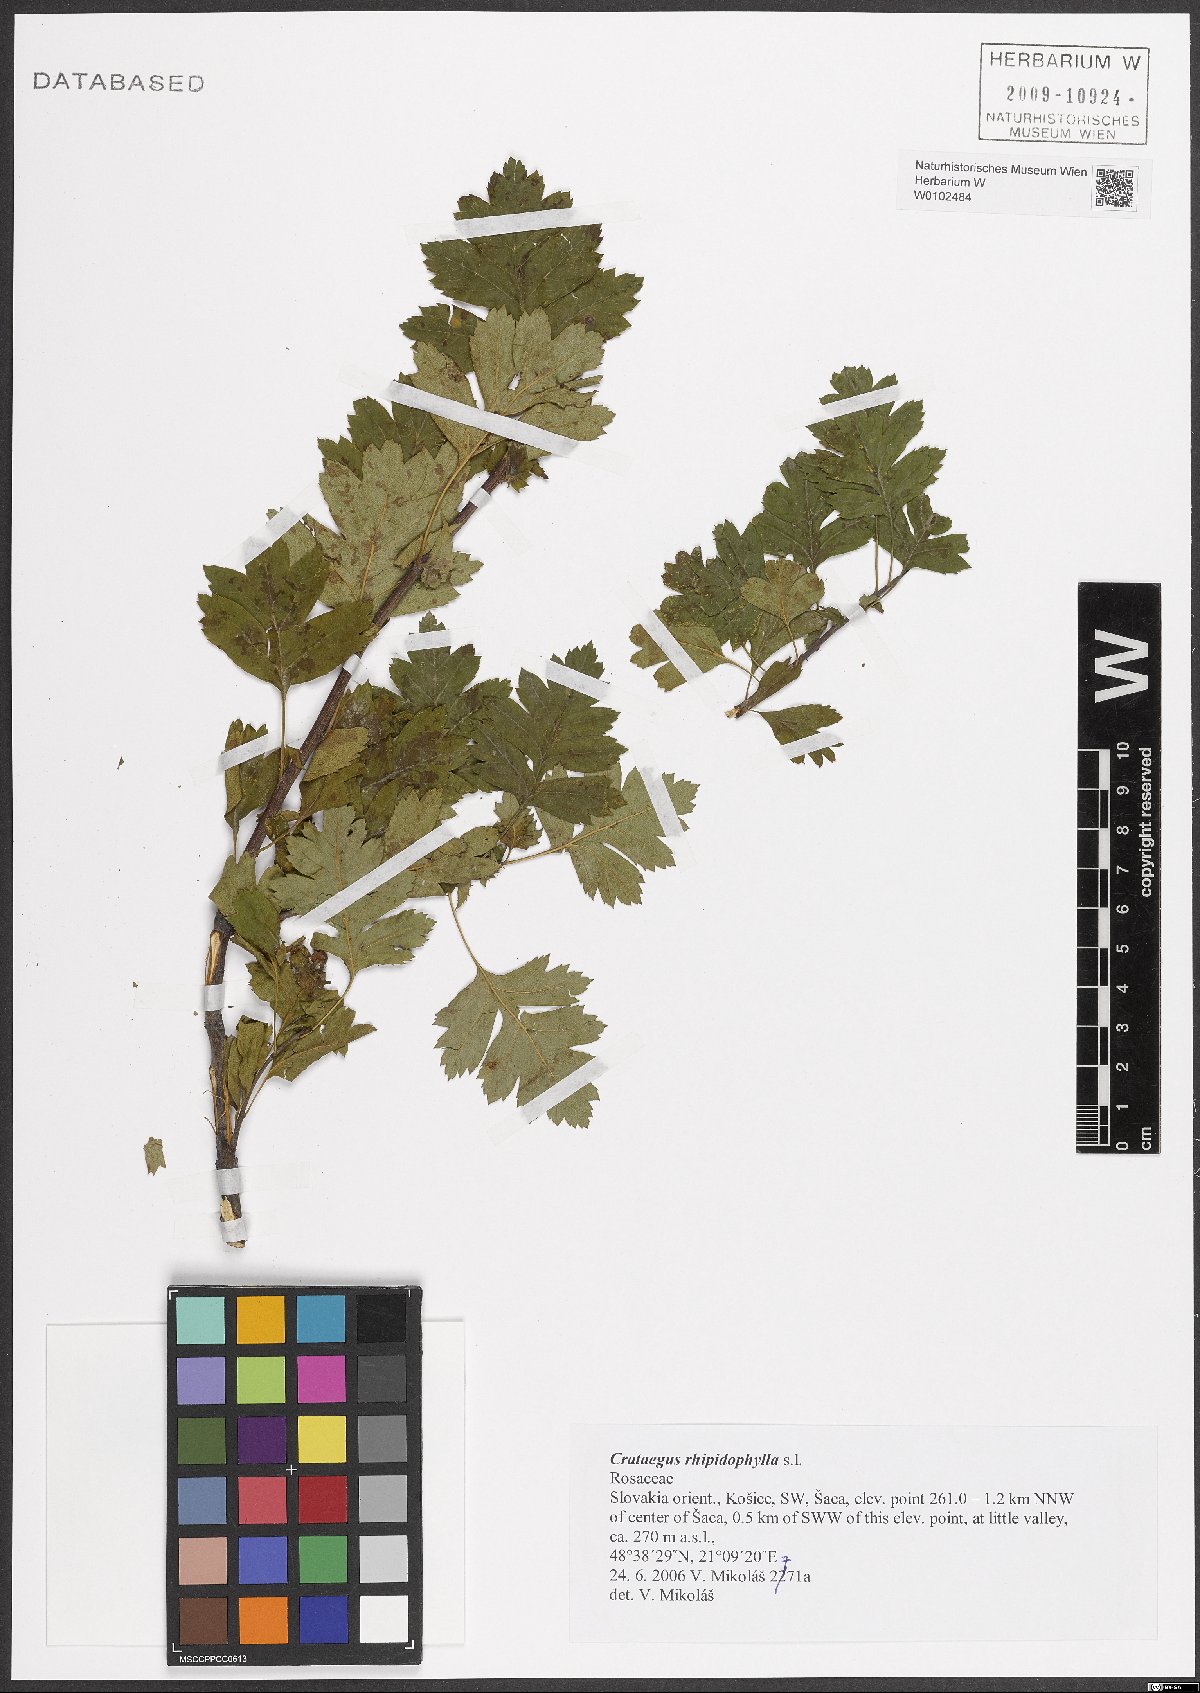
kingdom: Plantae
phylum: Tracheophyta
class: Magnoliopsida
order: Rosales
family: Rosaceae
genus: Crataegus
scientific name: Crataegus rhipidophylla
